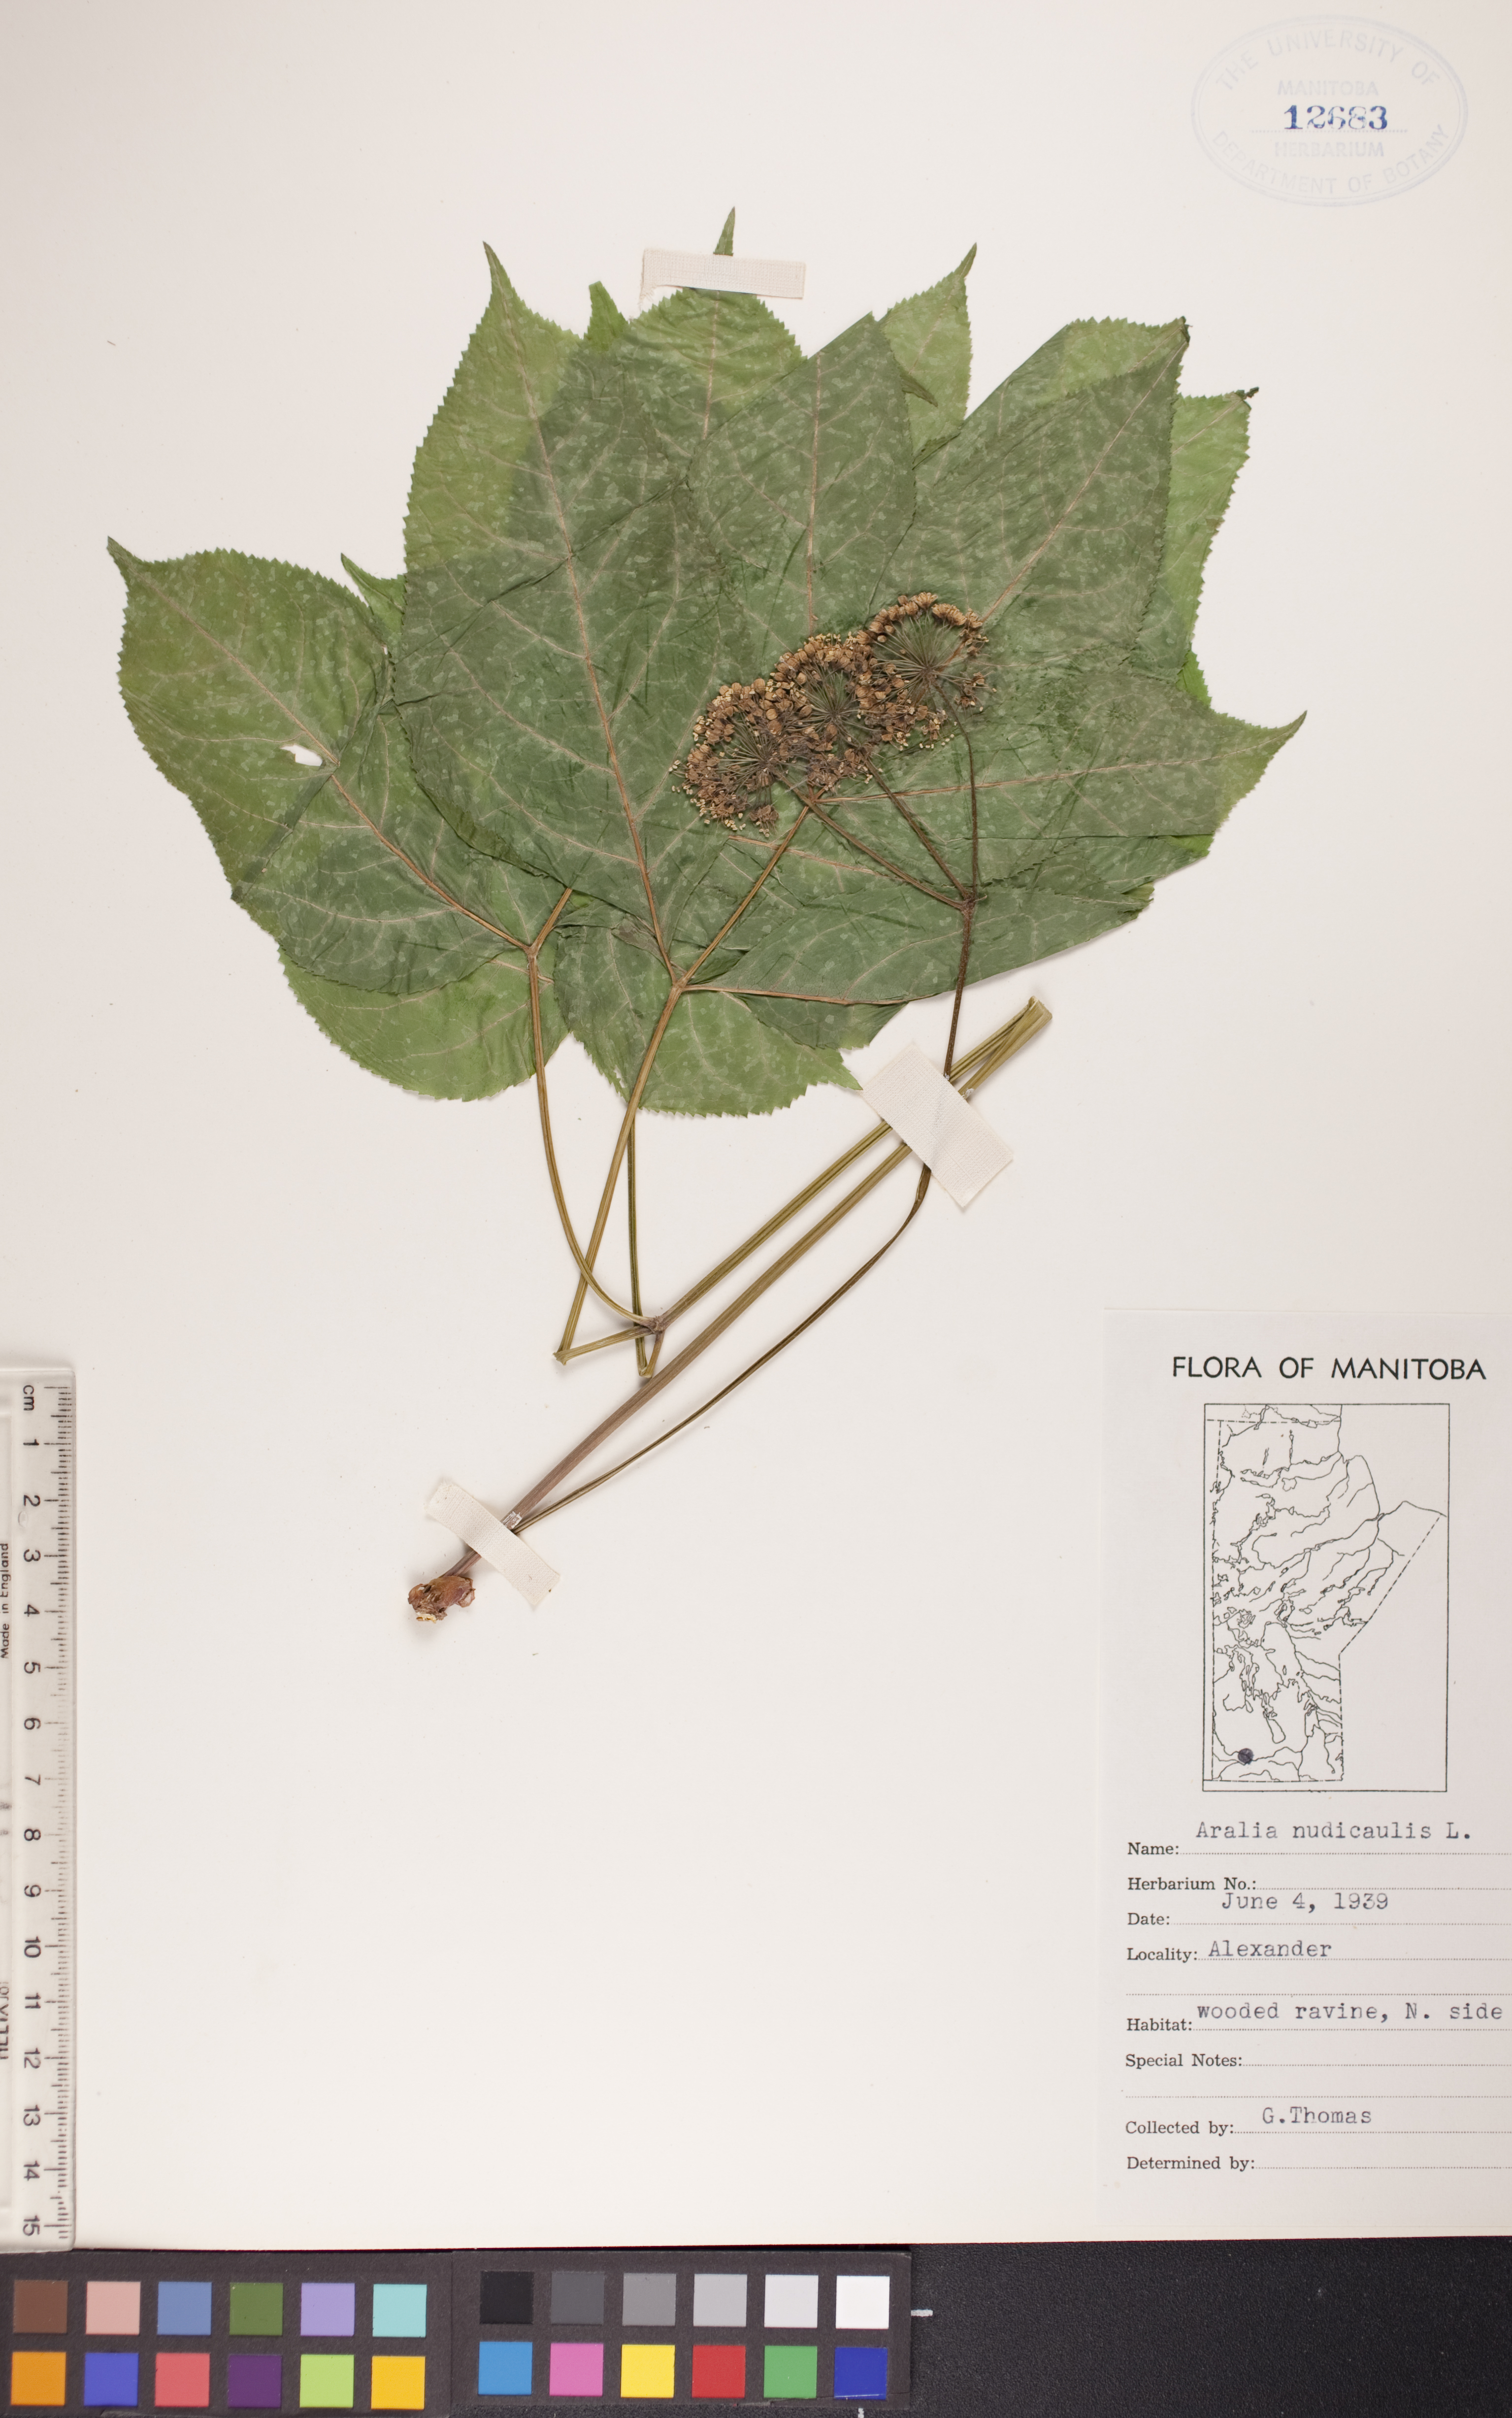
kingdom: Plantae
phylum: Tracheophyta
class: Magnoliopsida
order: Apiales
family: Araliaceae
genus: Aralia
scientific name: Aralia nudicaulis
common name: Wild sarsaparilla
